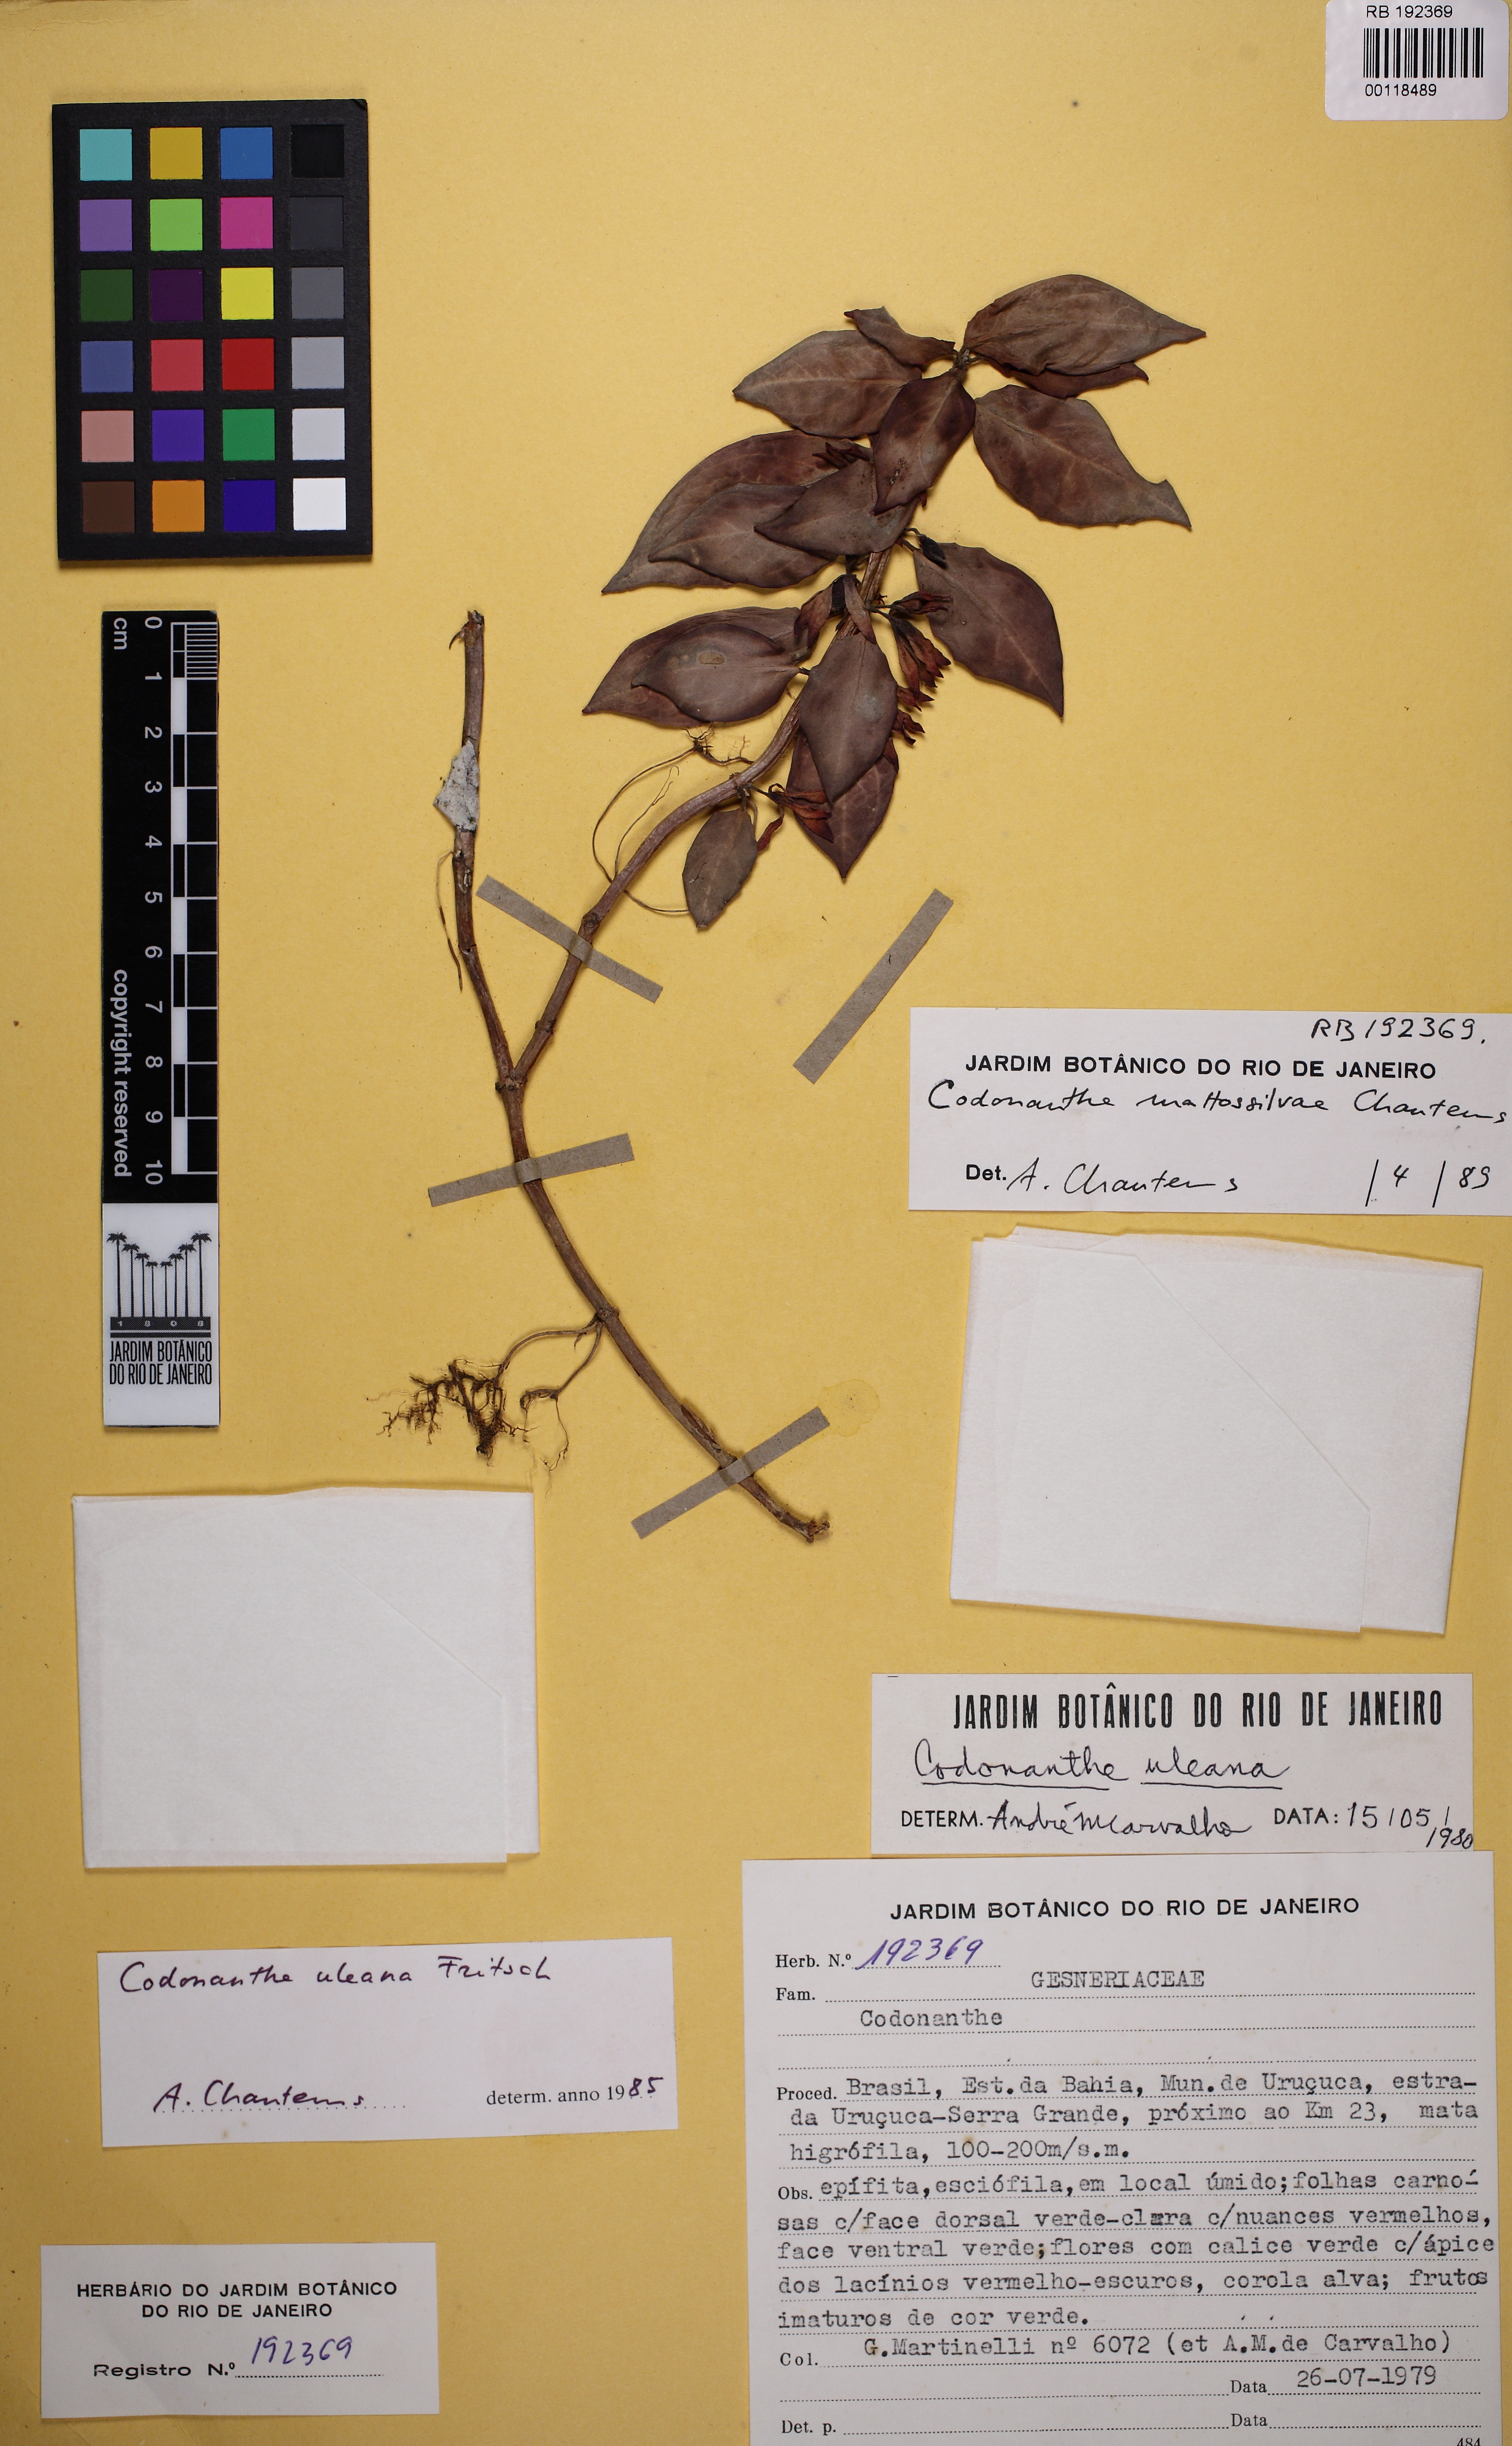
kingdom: Plantae
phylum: Tracheophyta
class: Magnoliopsida
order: Lamiales
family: Gesneriaceae
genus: Codonanthe
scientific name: Codonanthe mattos-silvae
